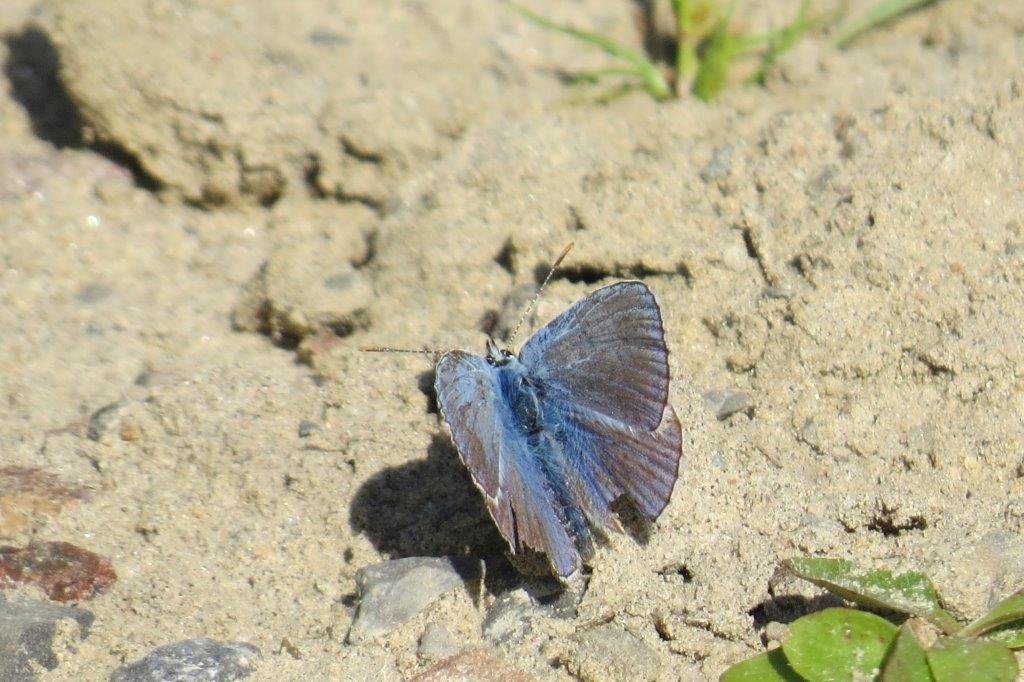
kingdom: Animalia
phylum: Arthropoda
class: Insecta
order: Lepidoptera
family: Lycaenidae
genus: Polyommatus
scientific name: Polyommatus icarus
